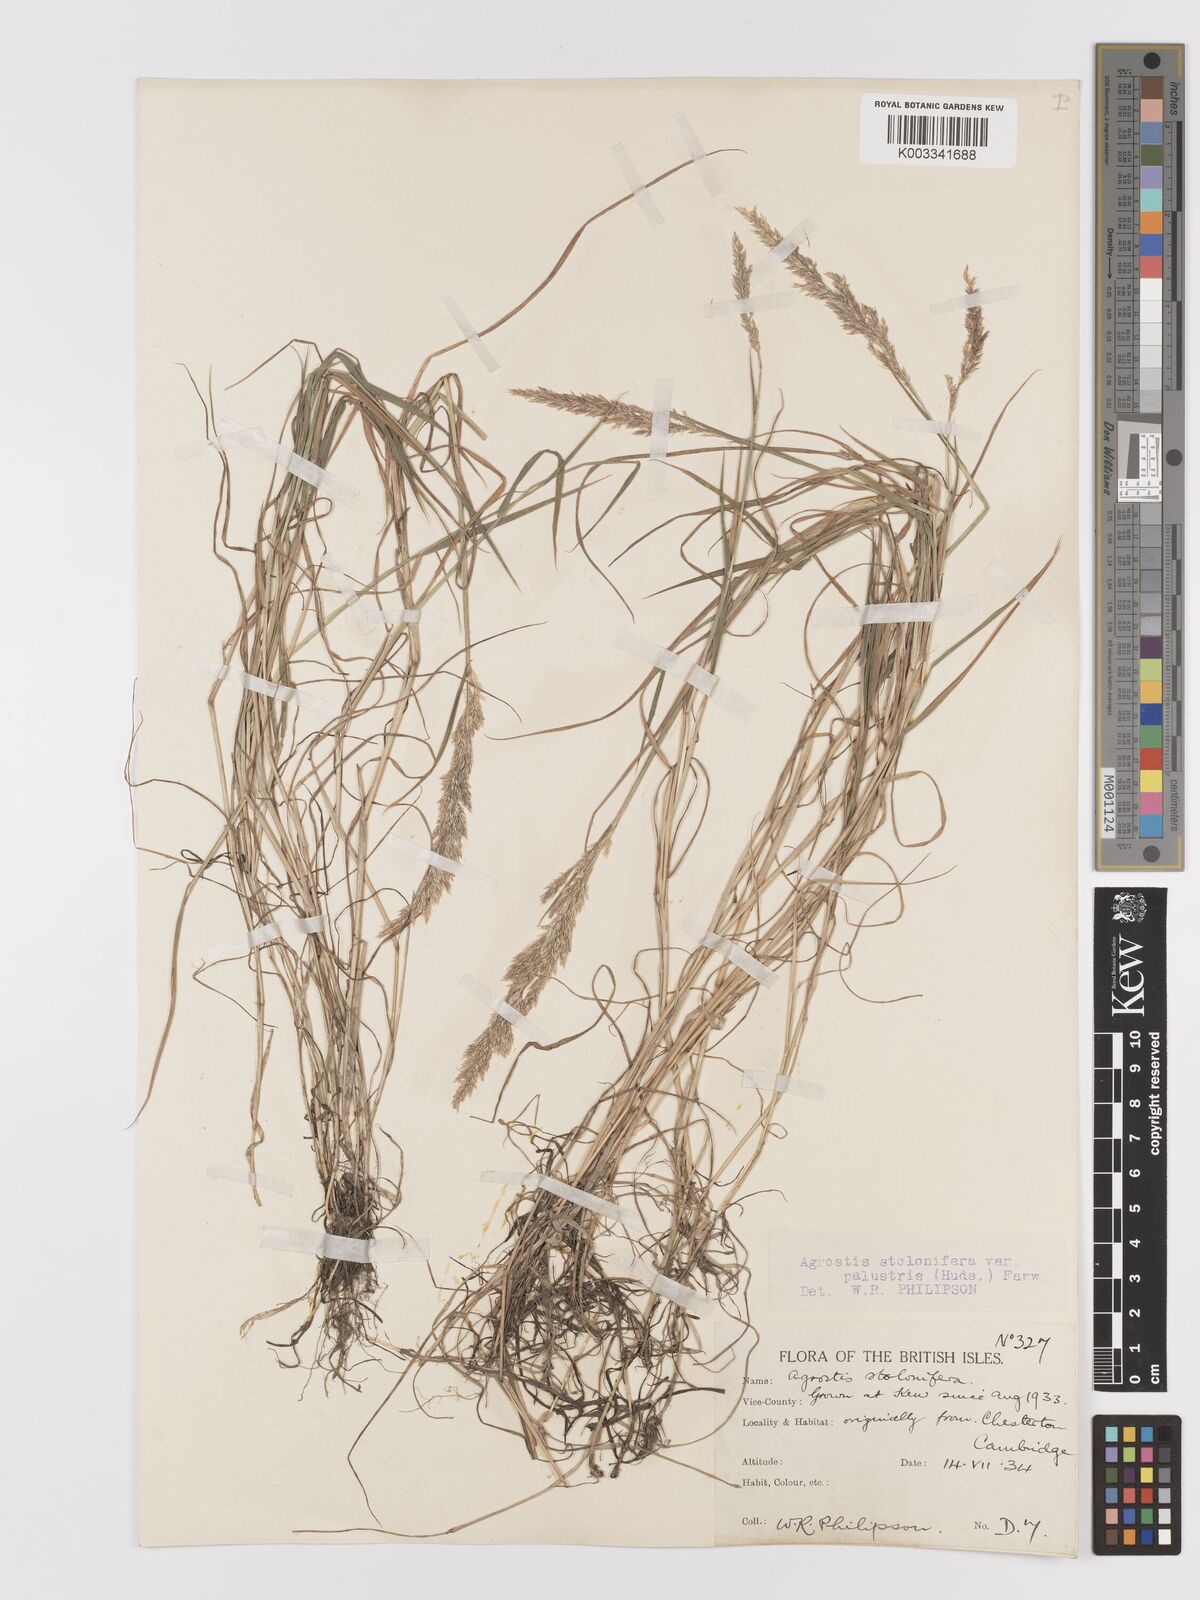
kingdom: Plantae
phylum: Tracheophyta
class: Liliopsida
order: Poales
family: Poaceae
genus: Agrostis
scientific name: Agrostis stolonifera
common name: Creeping bentgrass
